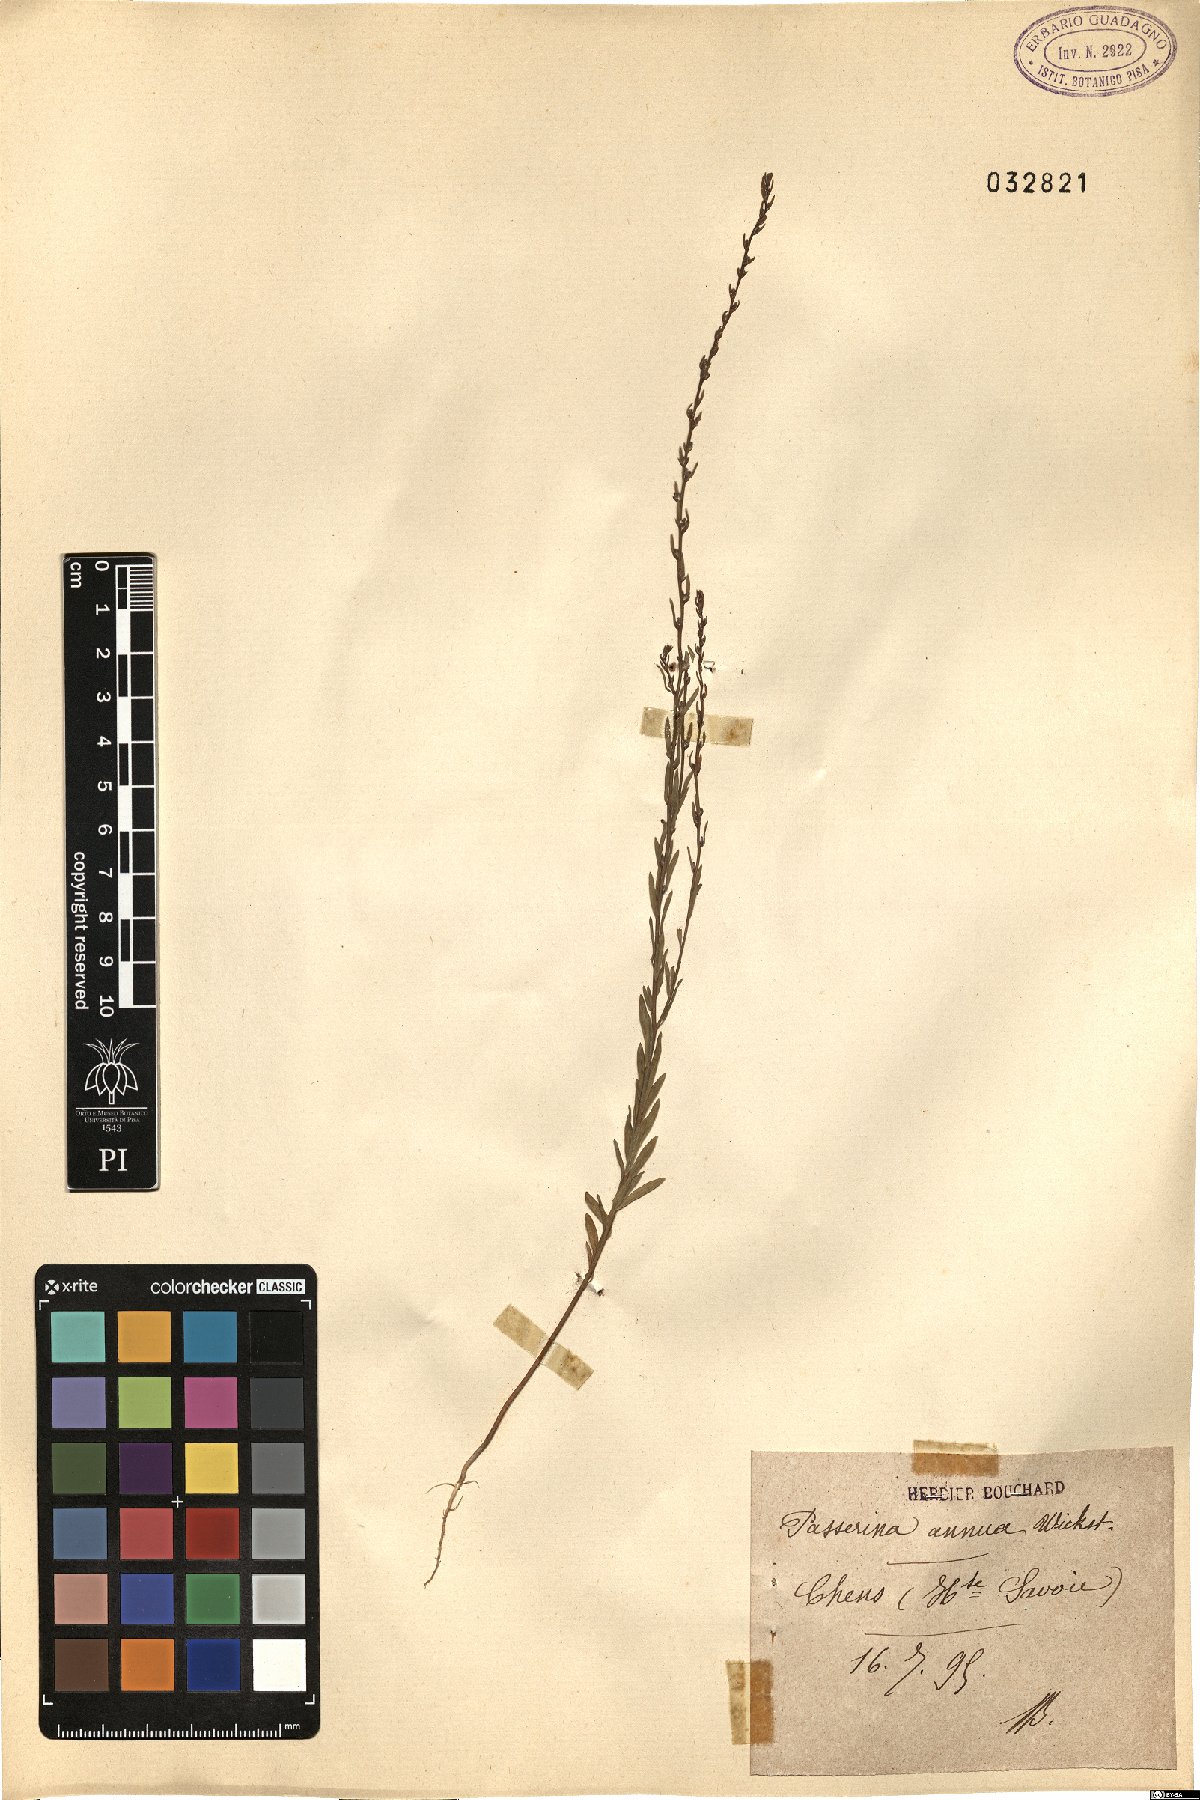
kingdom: Plantae
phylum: Tracheophyta
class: Magnoliopsida
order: Malvales
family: Thymelaeaceae
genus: Thymelaea
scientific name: Thymelaea passerina
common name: Annual thymelaea
